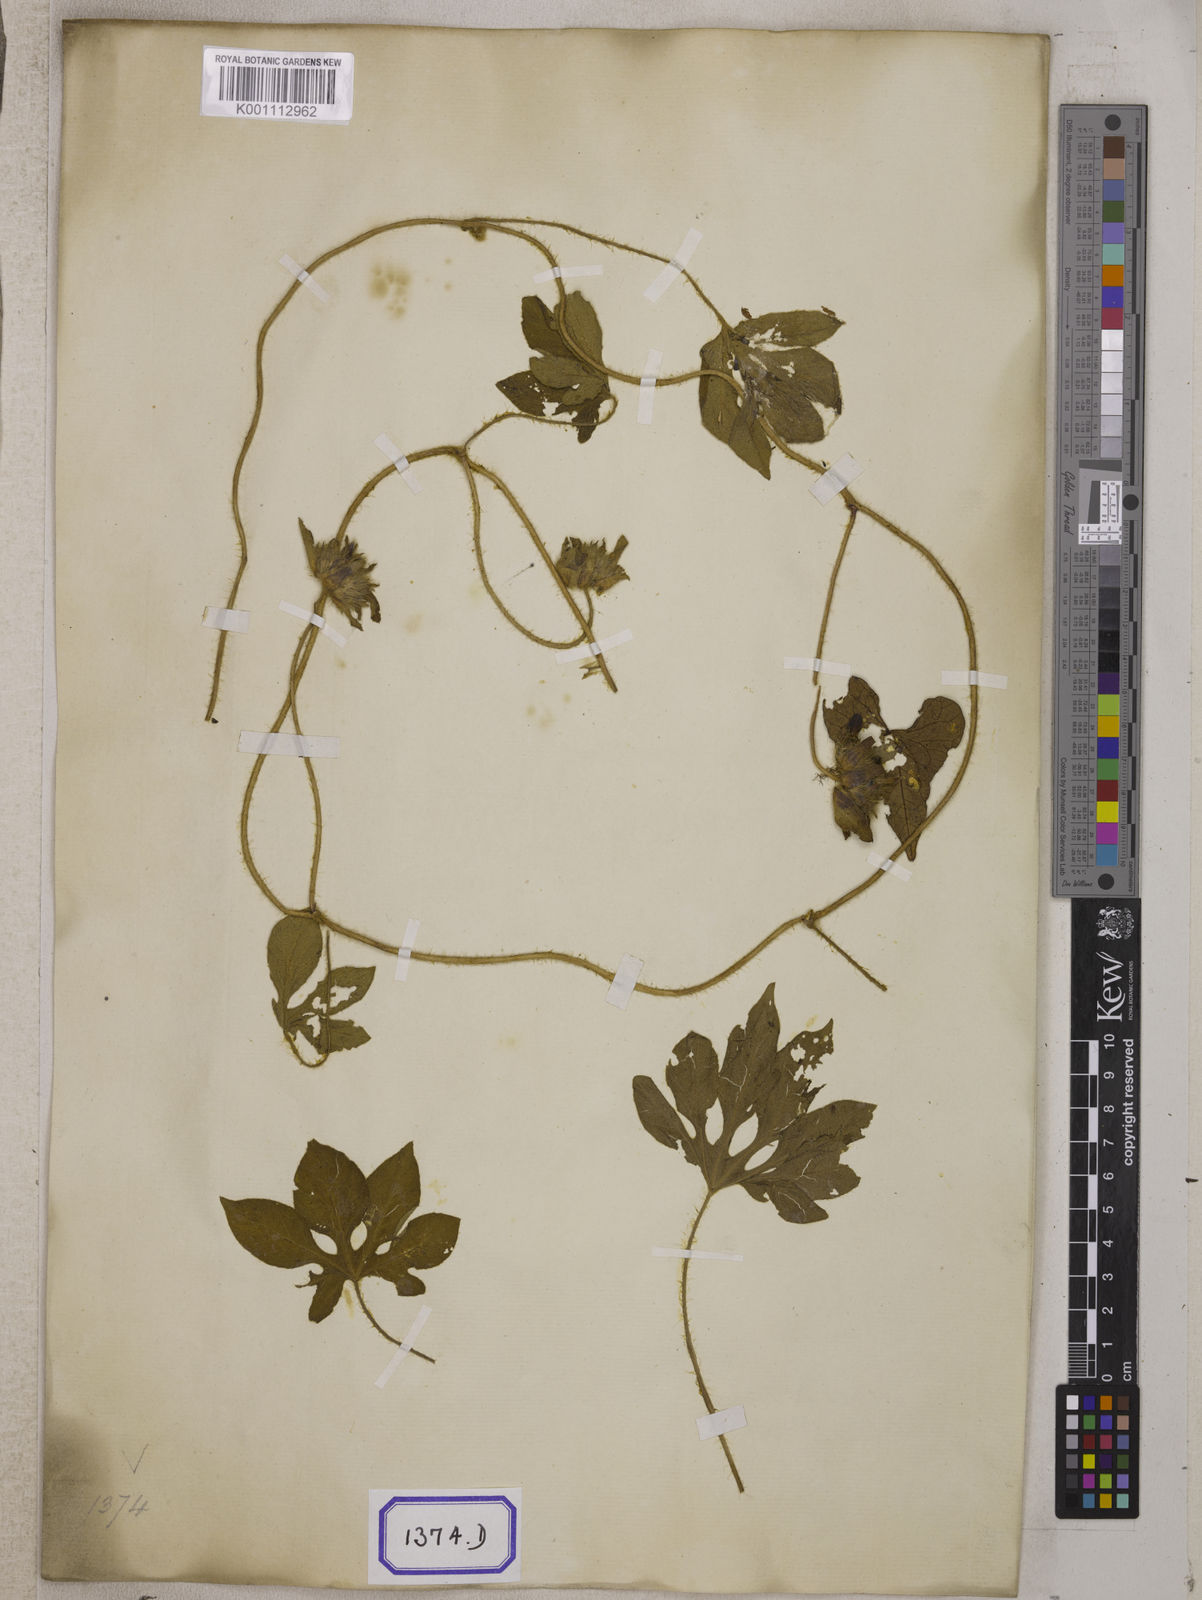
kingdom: Plantae
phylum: Tracheophyta
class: Magnoliopsida
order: Solanales
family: Convolvulaceae
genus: Ipomoea
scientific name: Ipomoea pes-tigridis
